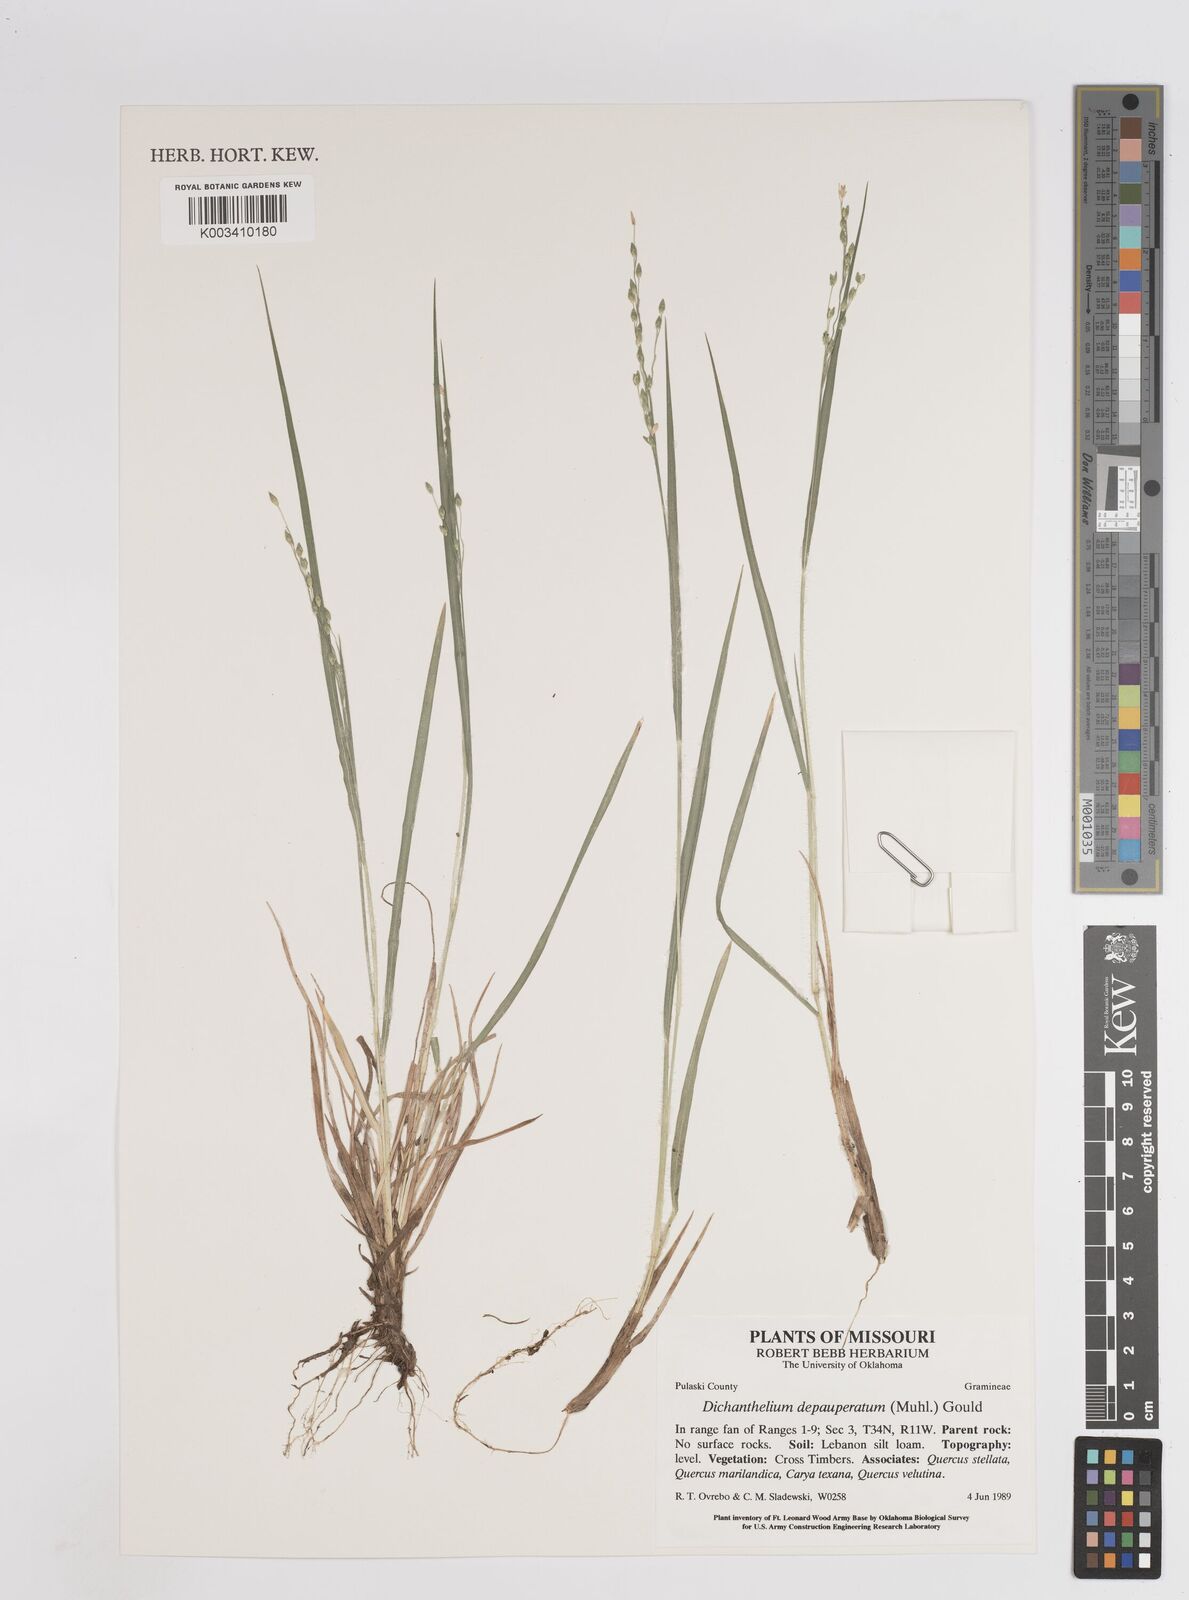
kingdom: Plantae
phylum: Tracheophyta
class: Liliopsida
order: Poales
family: Poaceae
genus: Dichanthelium
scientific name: Dichanthelium depauperatum
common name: Depauperate panicgrass
